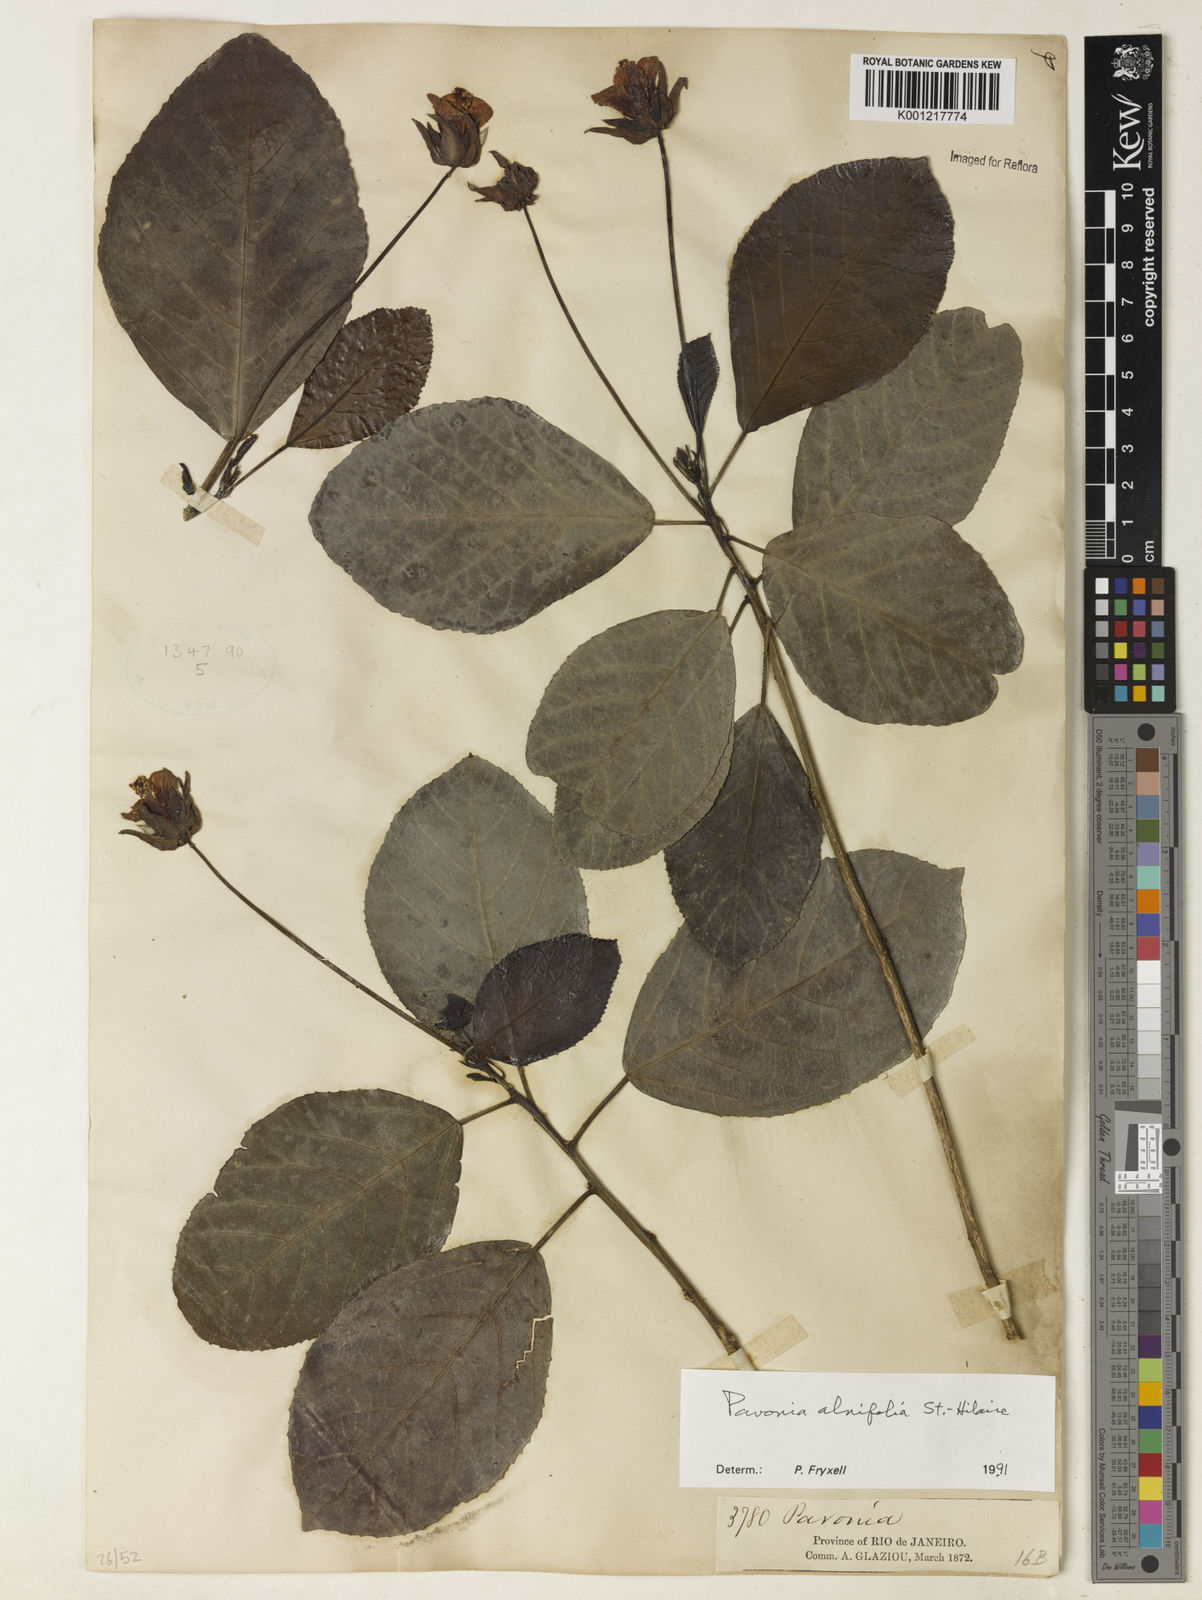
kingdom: Plantae
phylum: Tracheophyta
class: Magnoliopsida
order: Malvales
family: Malvaceae
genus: Pavonia
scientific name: Pavonia alnifolia
